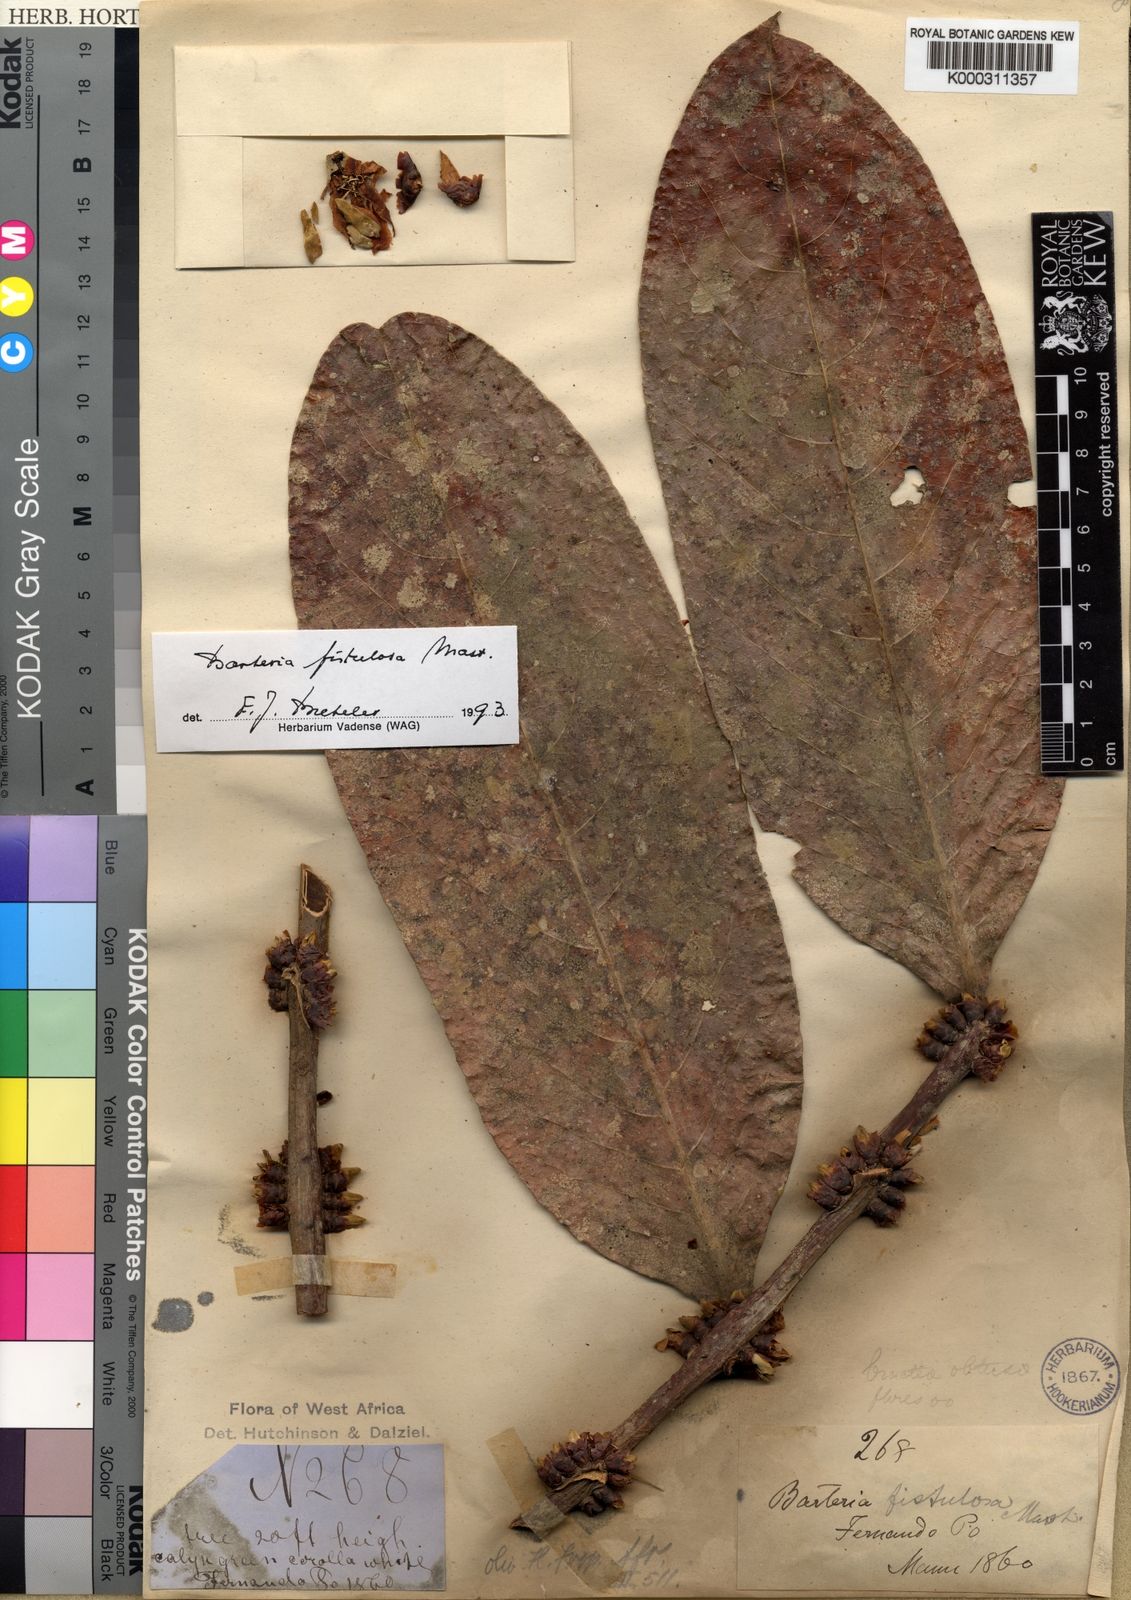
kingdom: Plantae
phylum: Tracheophyta
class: Magnoliopsida
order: Malpighiales
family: Passifloraceae
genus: Barteria
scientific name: Barteria fistulosa
